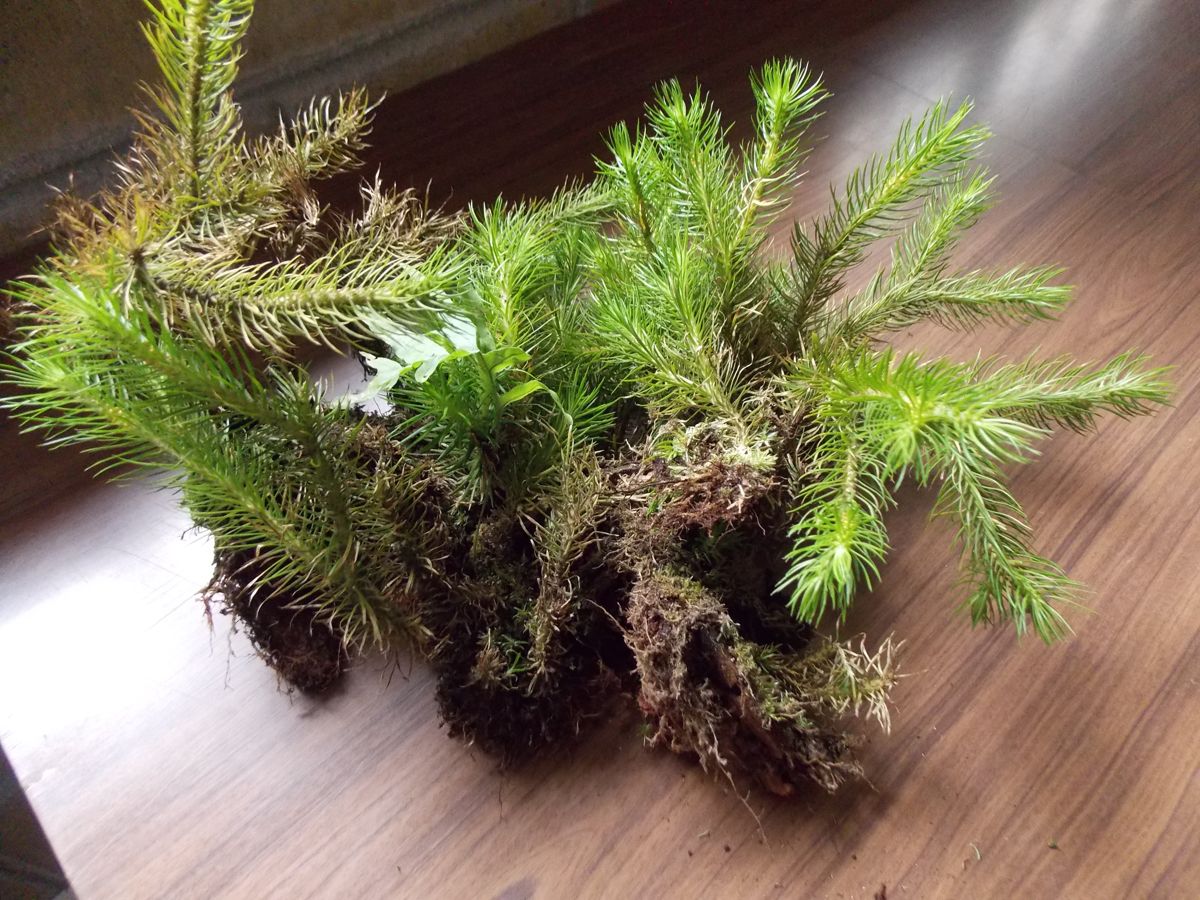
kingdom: Plantae
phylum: Tracheophyta
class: Lycopodiopsida
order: Lycopodiales
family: Lycopodiaceae
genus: Phlegmariurus
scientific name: Phlegmariurus dichotomus
